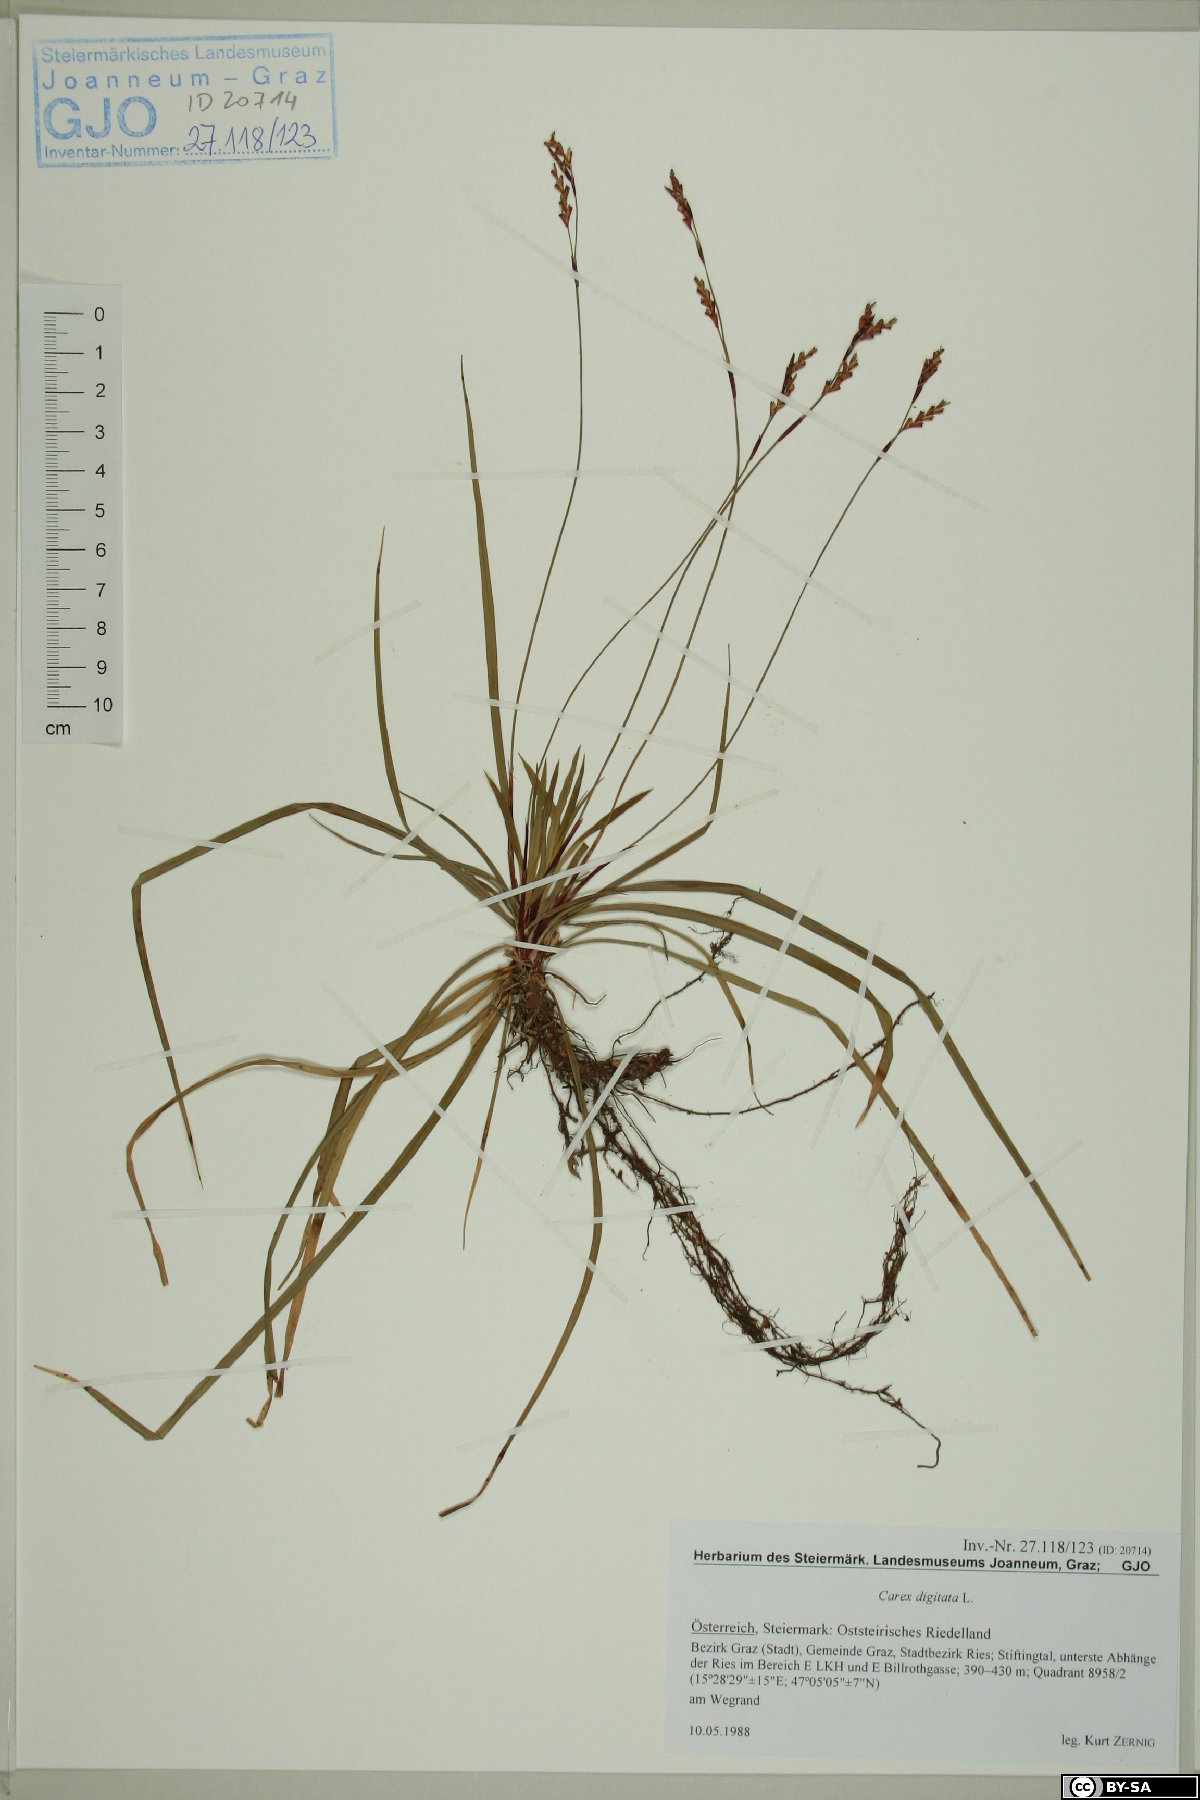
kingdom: Plantae
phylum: Tracheophyta
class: Liliopsida
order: Poales
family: Cyperaceae
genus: Carex
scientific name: Carex digitata
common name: Fingered sedge
